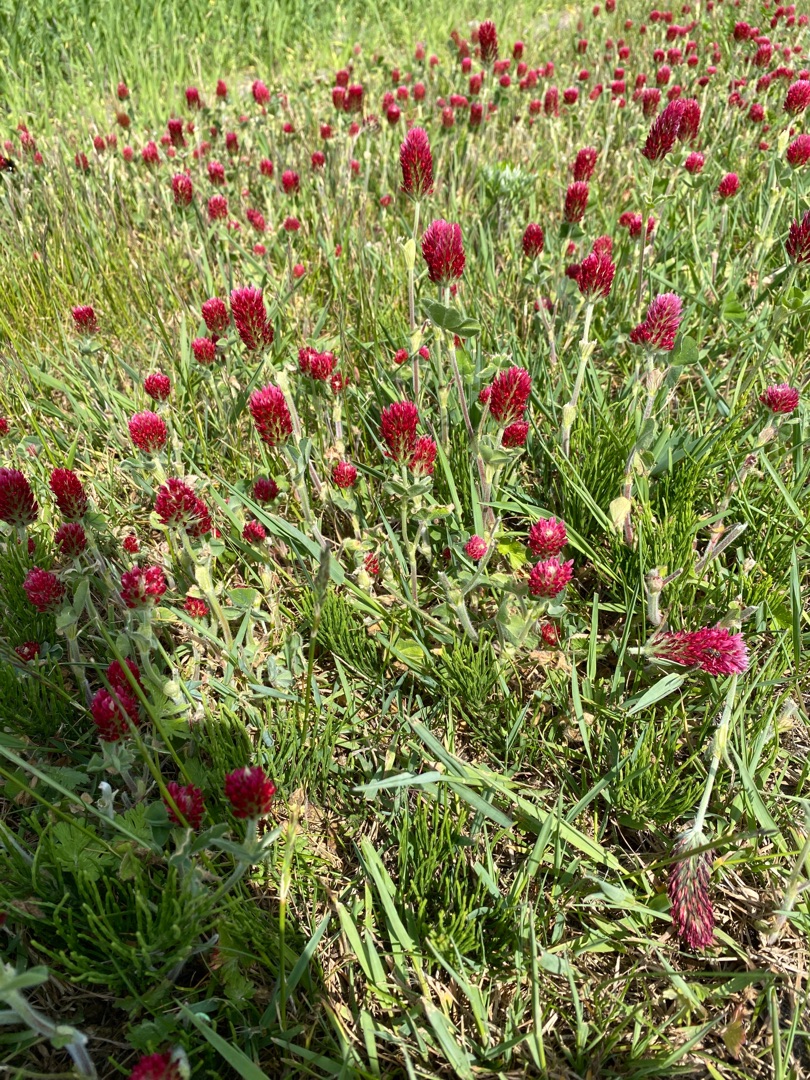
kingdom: Plantae
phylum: Tracheophyta
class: Magnoliopsida
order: Fabales
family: Fabaceae
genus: Trifolium
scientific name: Trifolium incarnatum
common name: Blod-kløver
